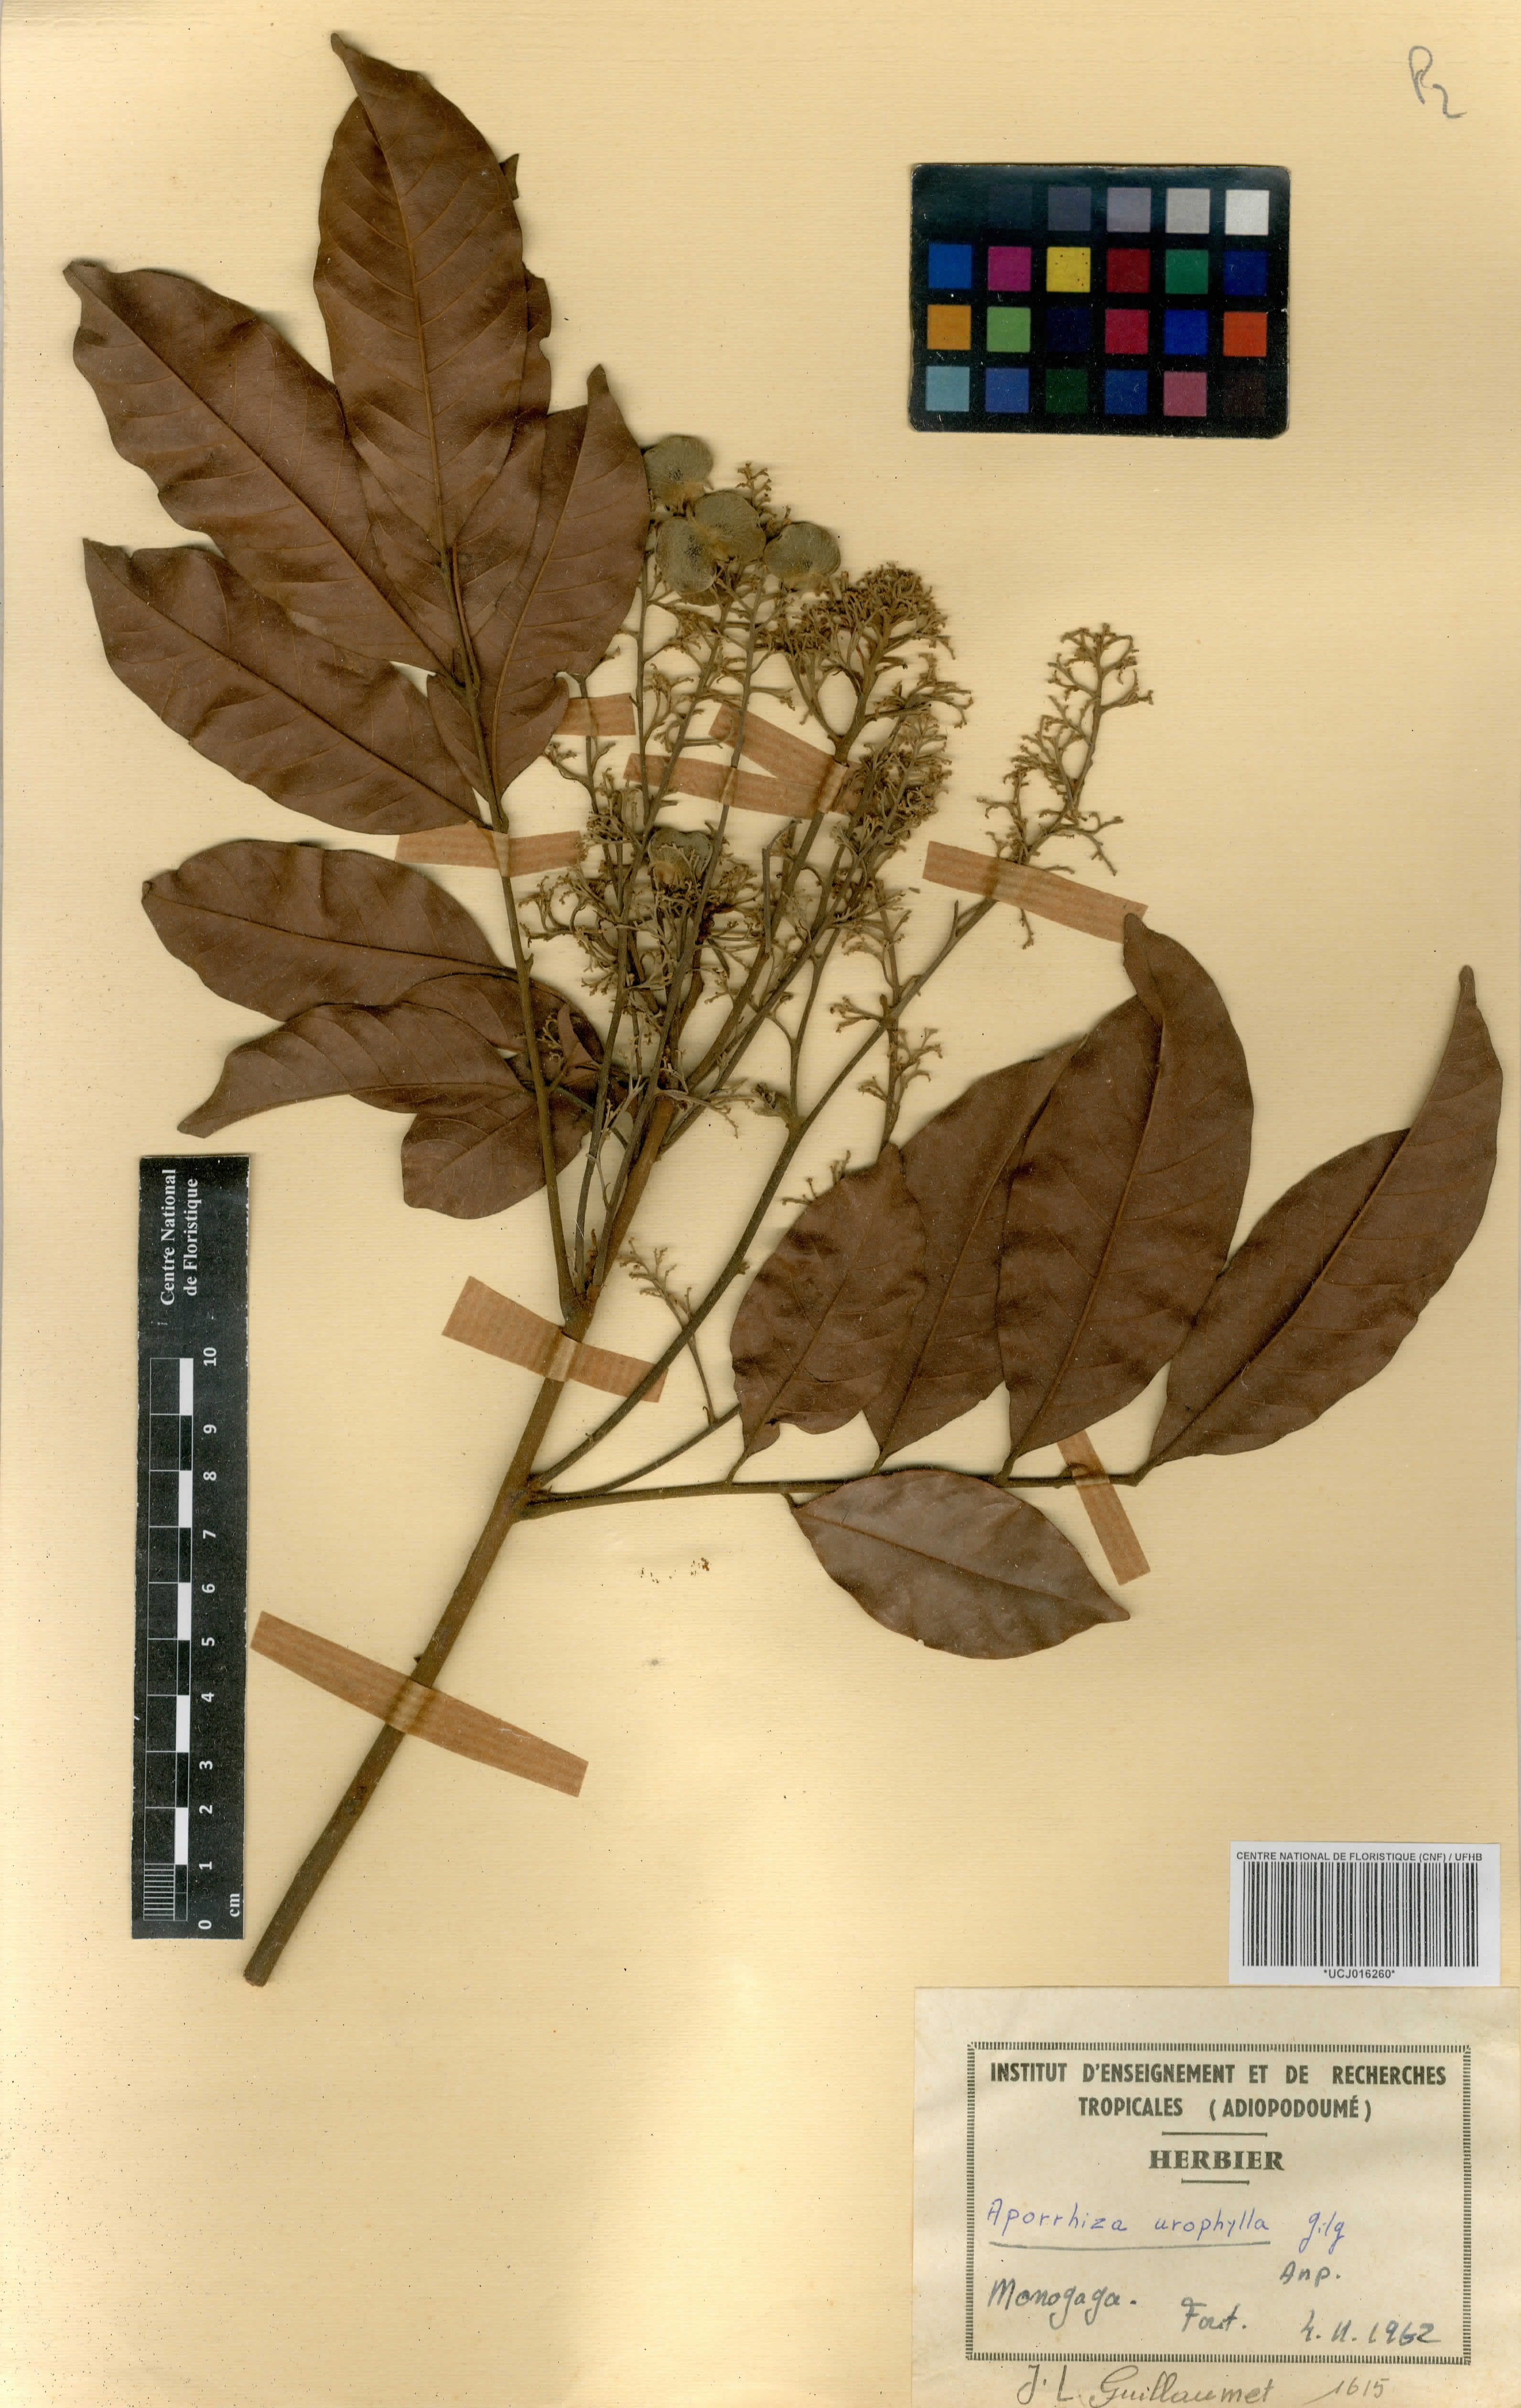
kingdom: Plantae
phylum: Tracheophyta
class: Magnoliopsida
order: Sapindales
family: Sapindaceae
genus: Aporrhiza
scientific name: Aporrhiza urophylla
